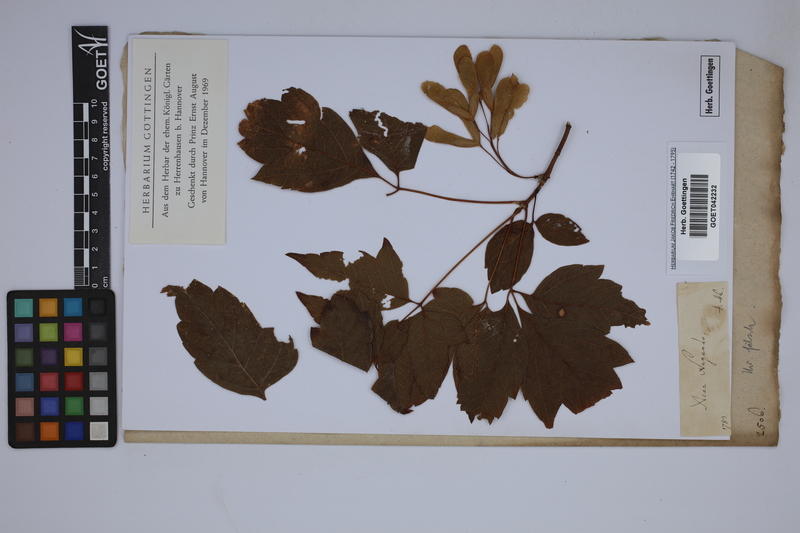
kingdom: Plantae
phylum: Tracheophyta
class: Magnoliopsida
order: Sapindales
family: Sapindaceae
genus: Acer
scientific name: Acer negundo
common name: Ashleaf maple
